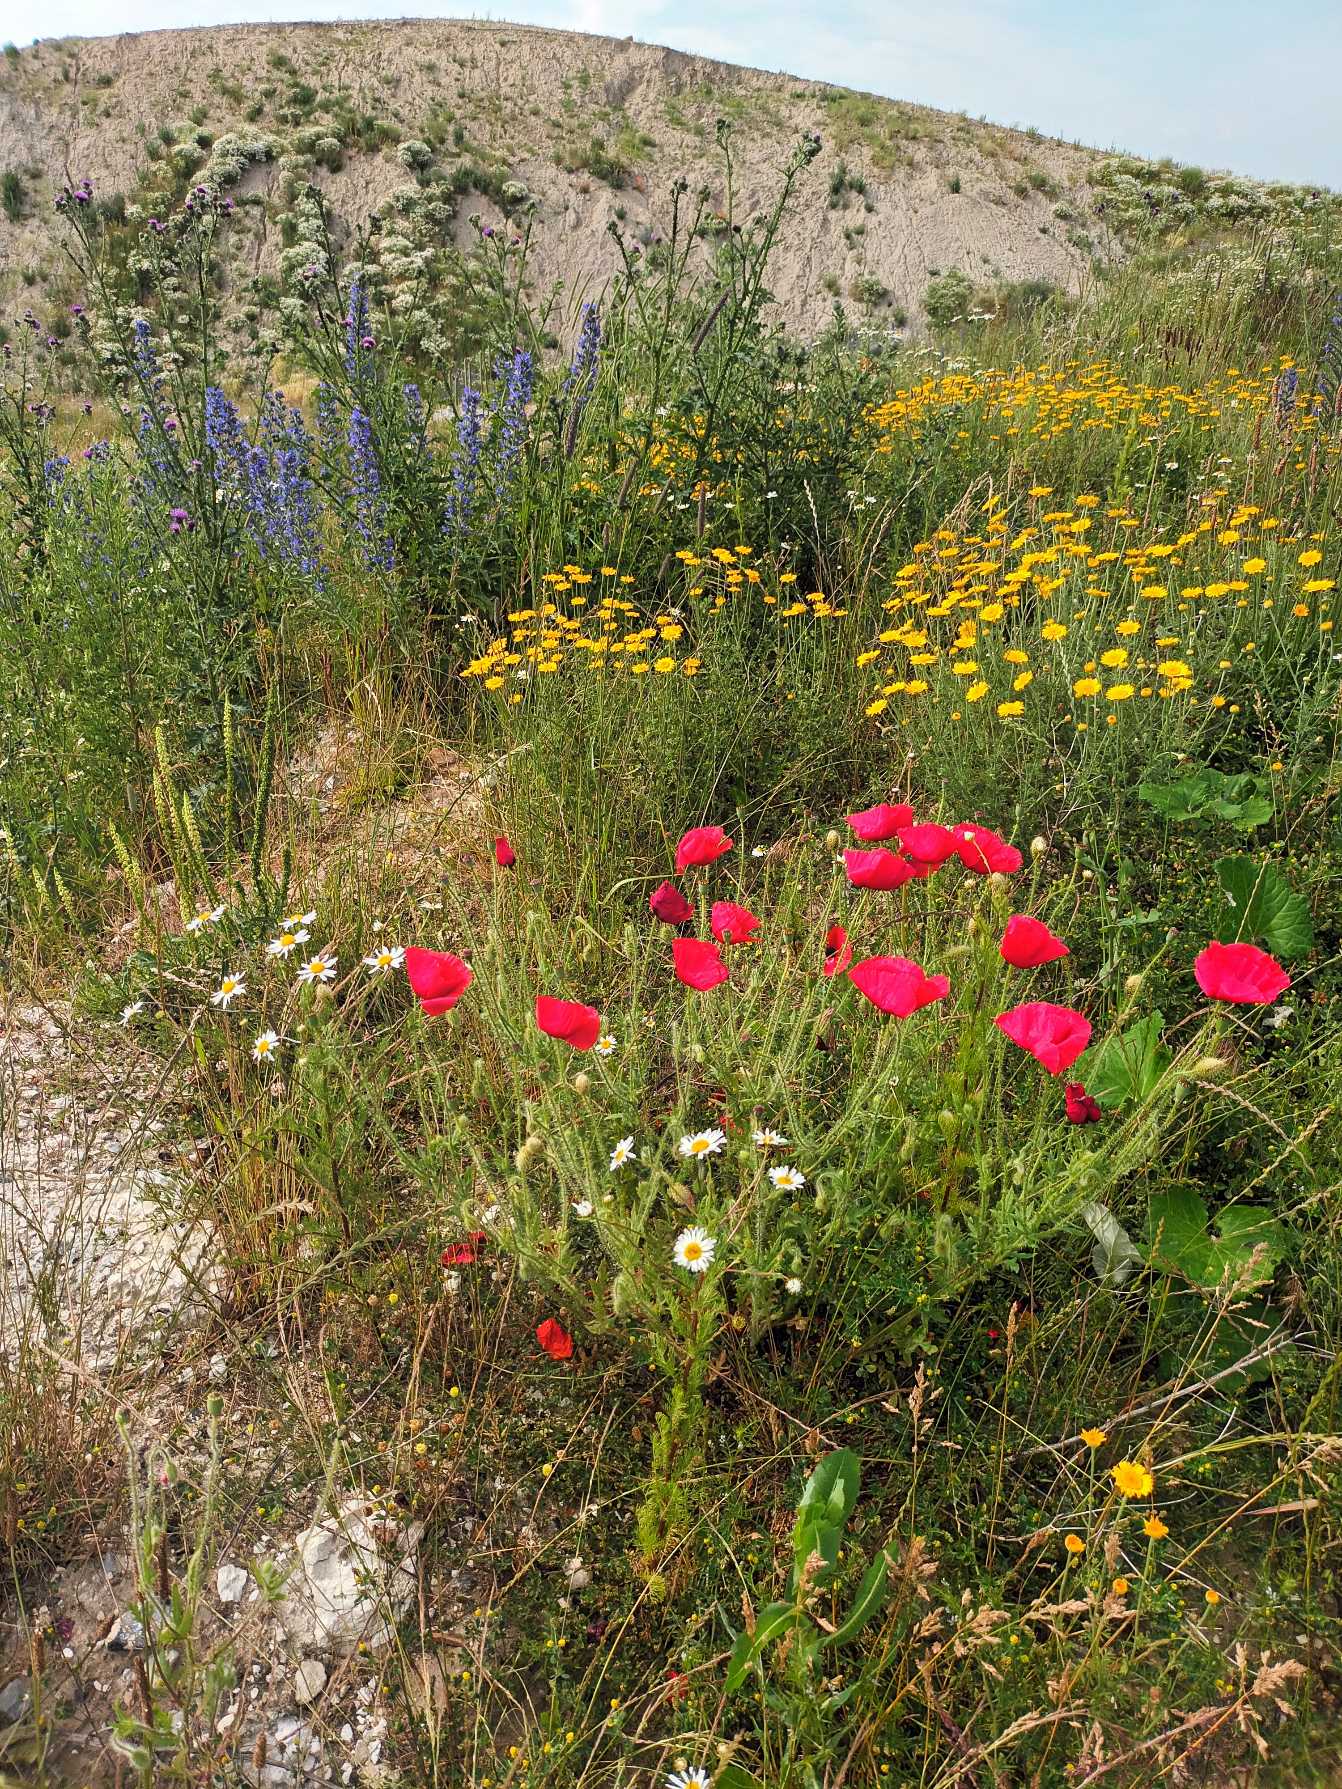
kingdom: Plantae
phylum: Tracheophyta
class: Magnoliopsida
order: Ranunculales
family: Papaveraceae
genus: Papaver
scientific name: Papaver rhoeas
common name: Korn-valmue
